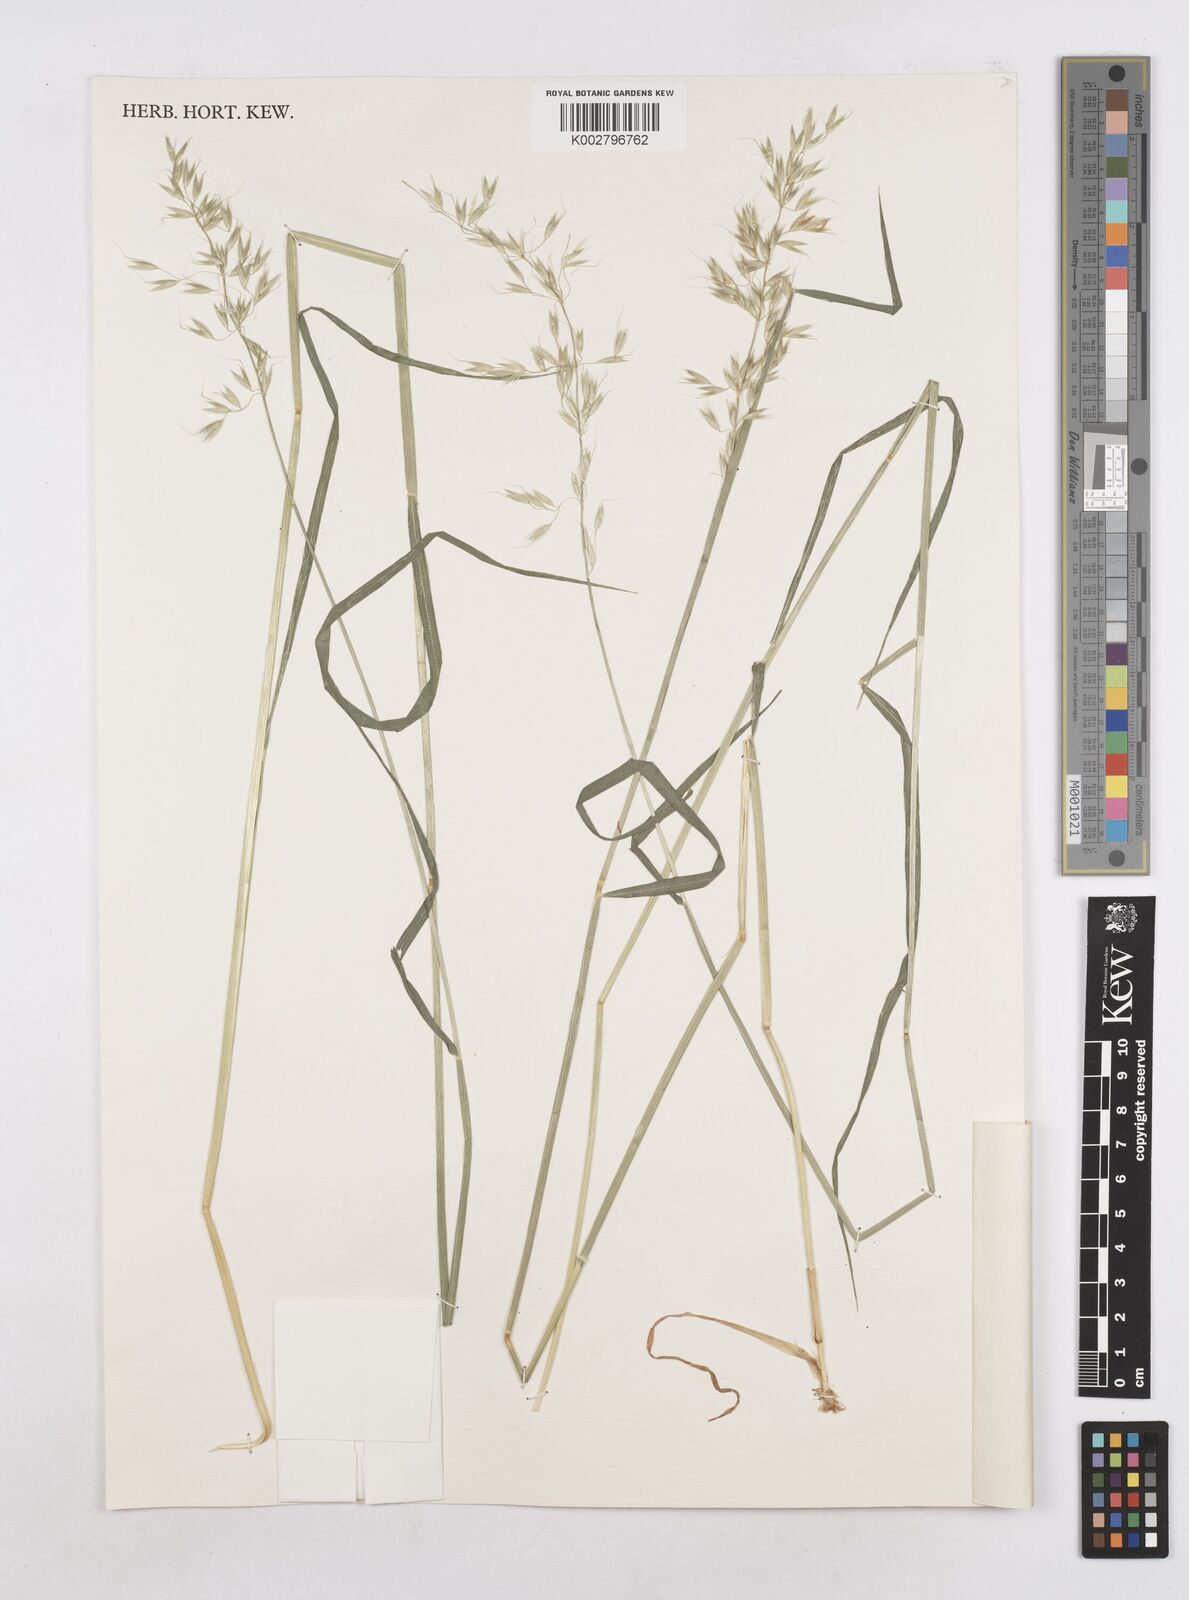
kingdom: Plantae
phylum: Tracheophyta
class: Liliopsida
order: Poales
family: Poaceae
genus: Arrhenatherum
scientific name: Arrhenatherum elatius
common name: Tall oatgrass
